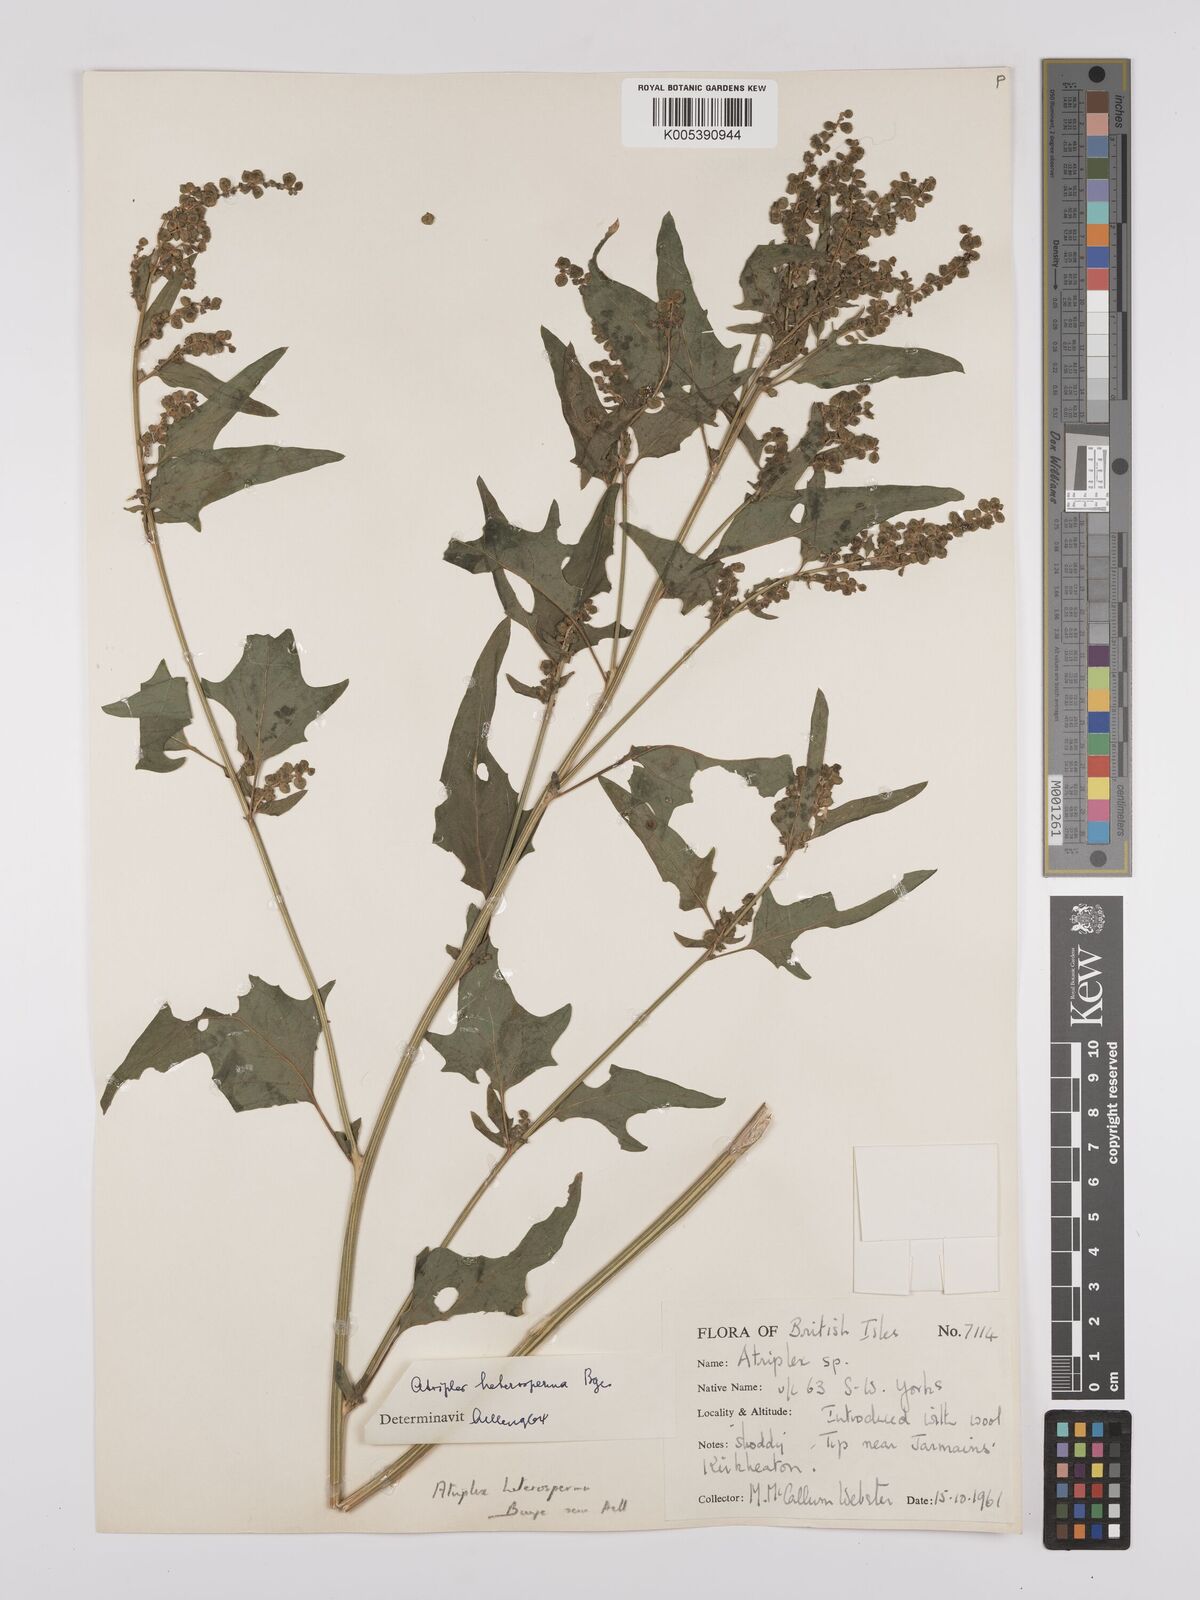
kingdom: Plantae
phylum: Tracheophyta
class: Magnoliopsida
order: Caryophyllales
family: Amaranthaceae
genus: Atriplex
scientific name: Atriplex micrantha
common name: Twoscale saltbush
